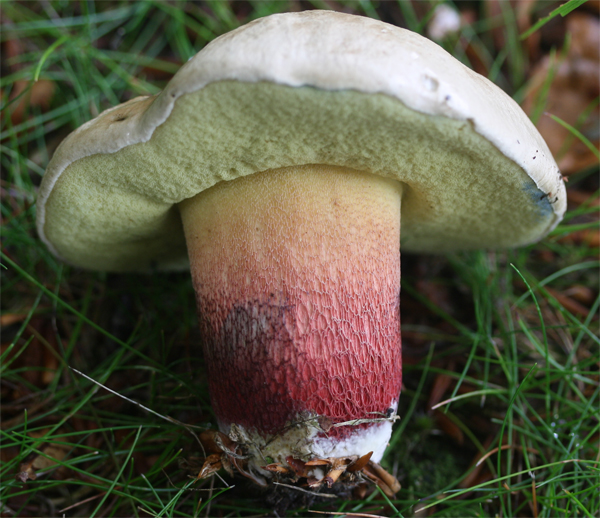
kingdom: Fungi
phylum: Basidiomycota
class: Agaricomycetes
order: Boletales
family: Boletaceae
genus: Caloboletus
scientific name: Caloboletus calopus
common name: skønfodet rørhat
